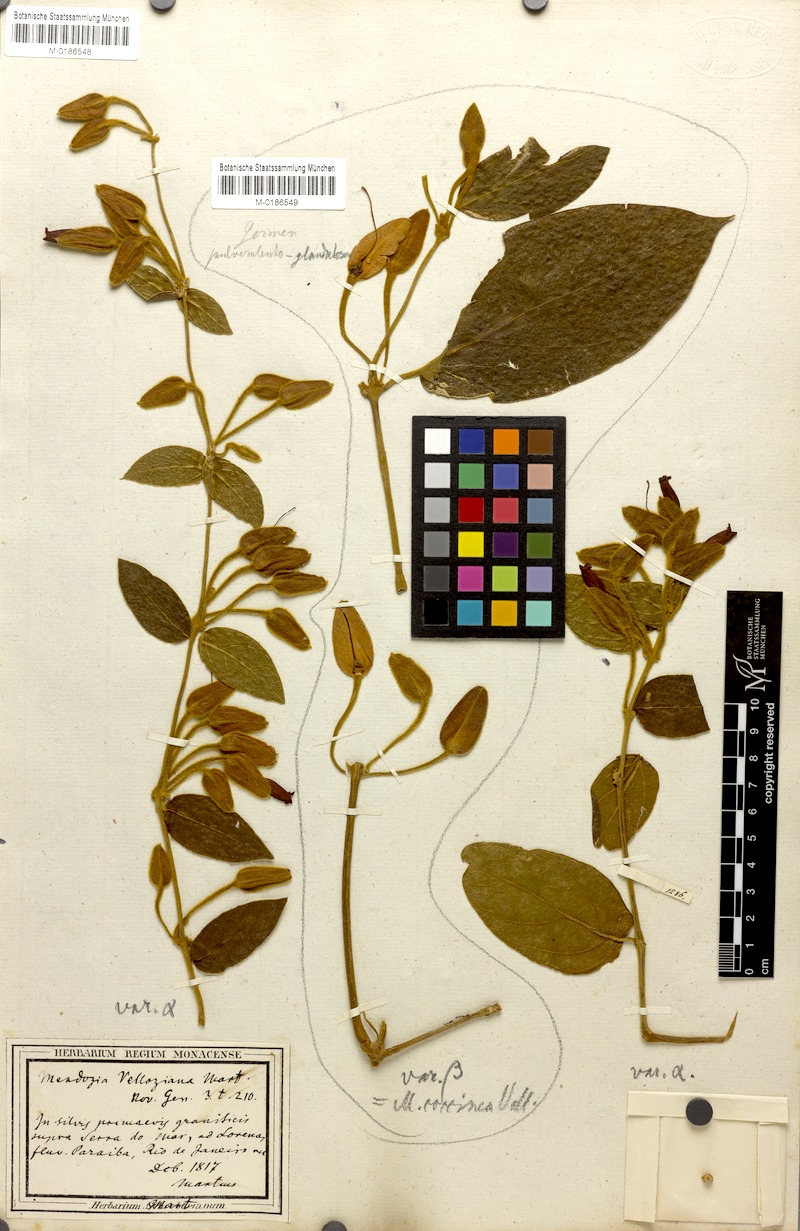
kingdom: Plantae
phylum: Tracheophyta
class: Magnoliopsida
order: Lamiales
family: Acanthaceae
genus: Mendoncia
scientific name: Mendoncia velloziana
